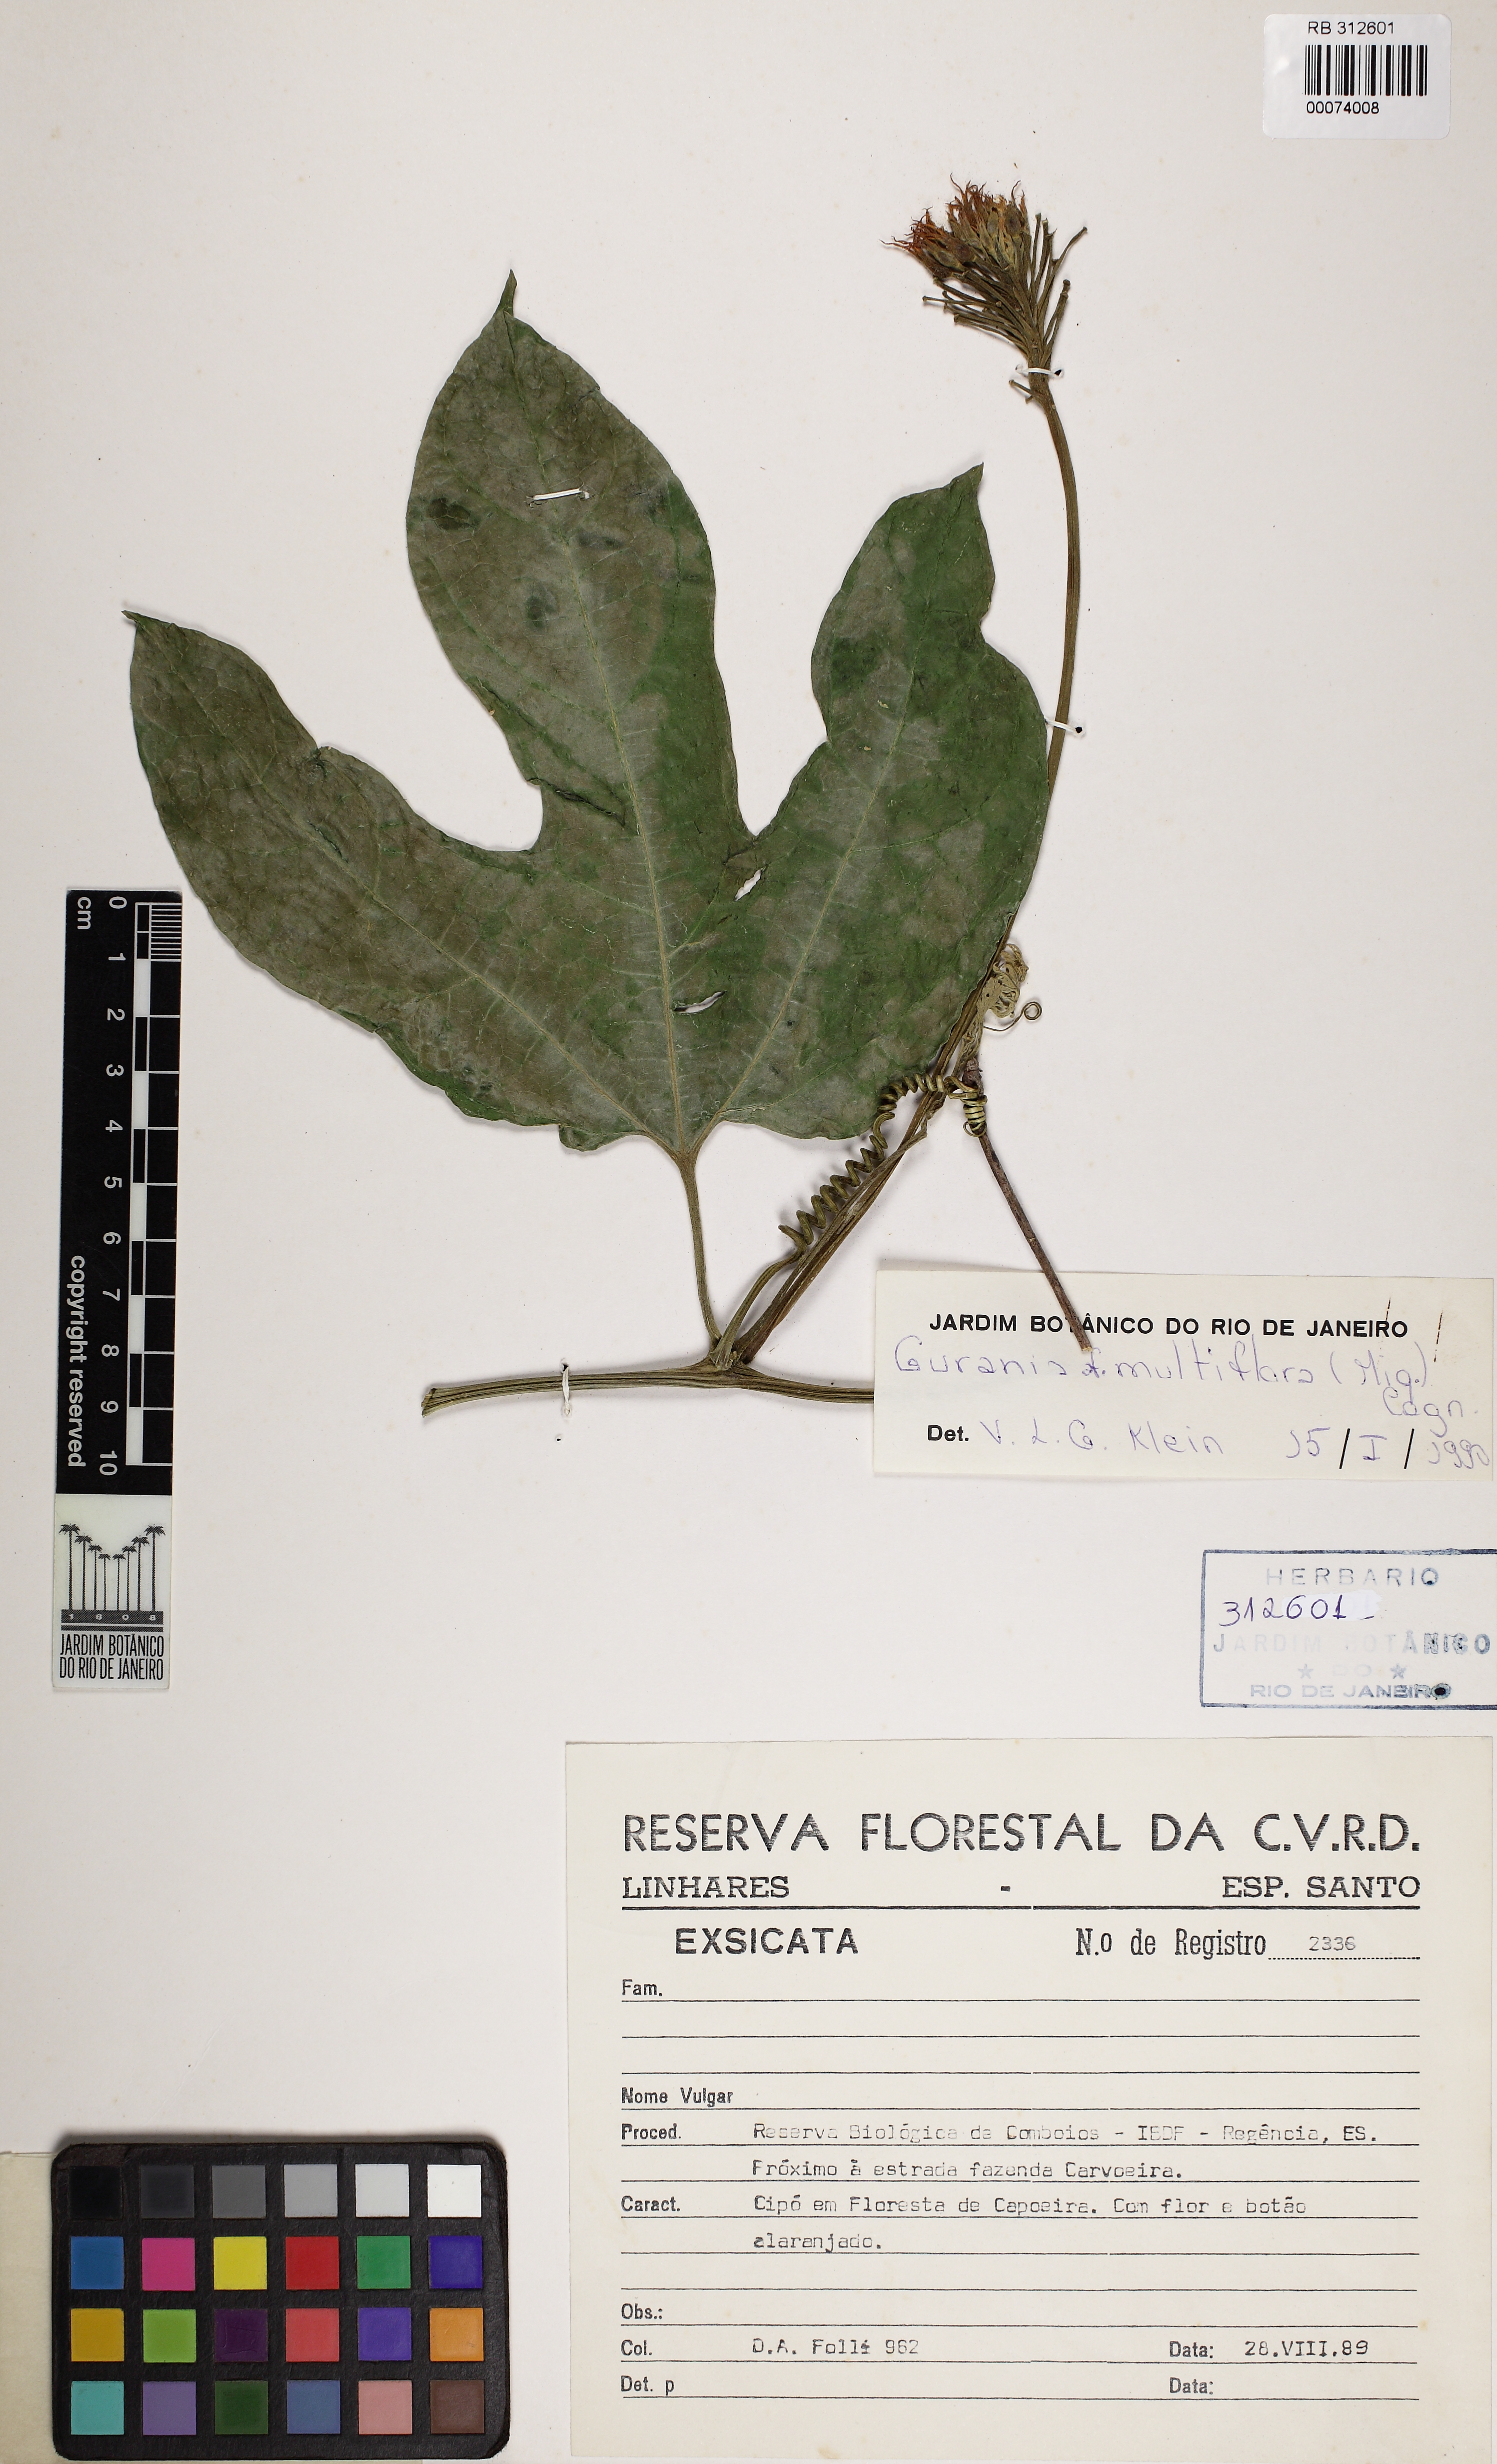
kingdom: Plantae
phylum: Tracheophyta
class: Magnoliopsida
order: Cucurbitales
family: Cucurbitaceae
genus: Gurania
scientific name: Gurania sellowiana
